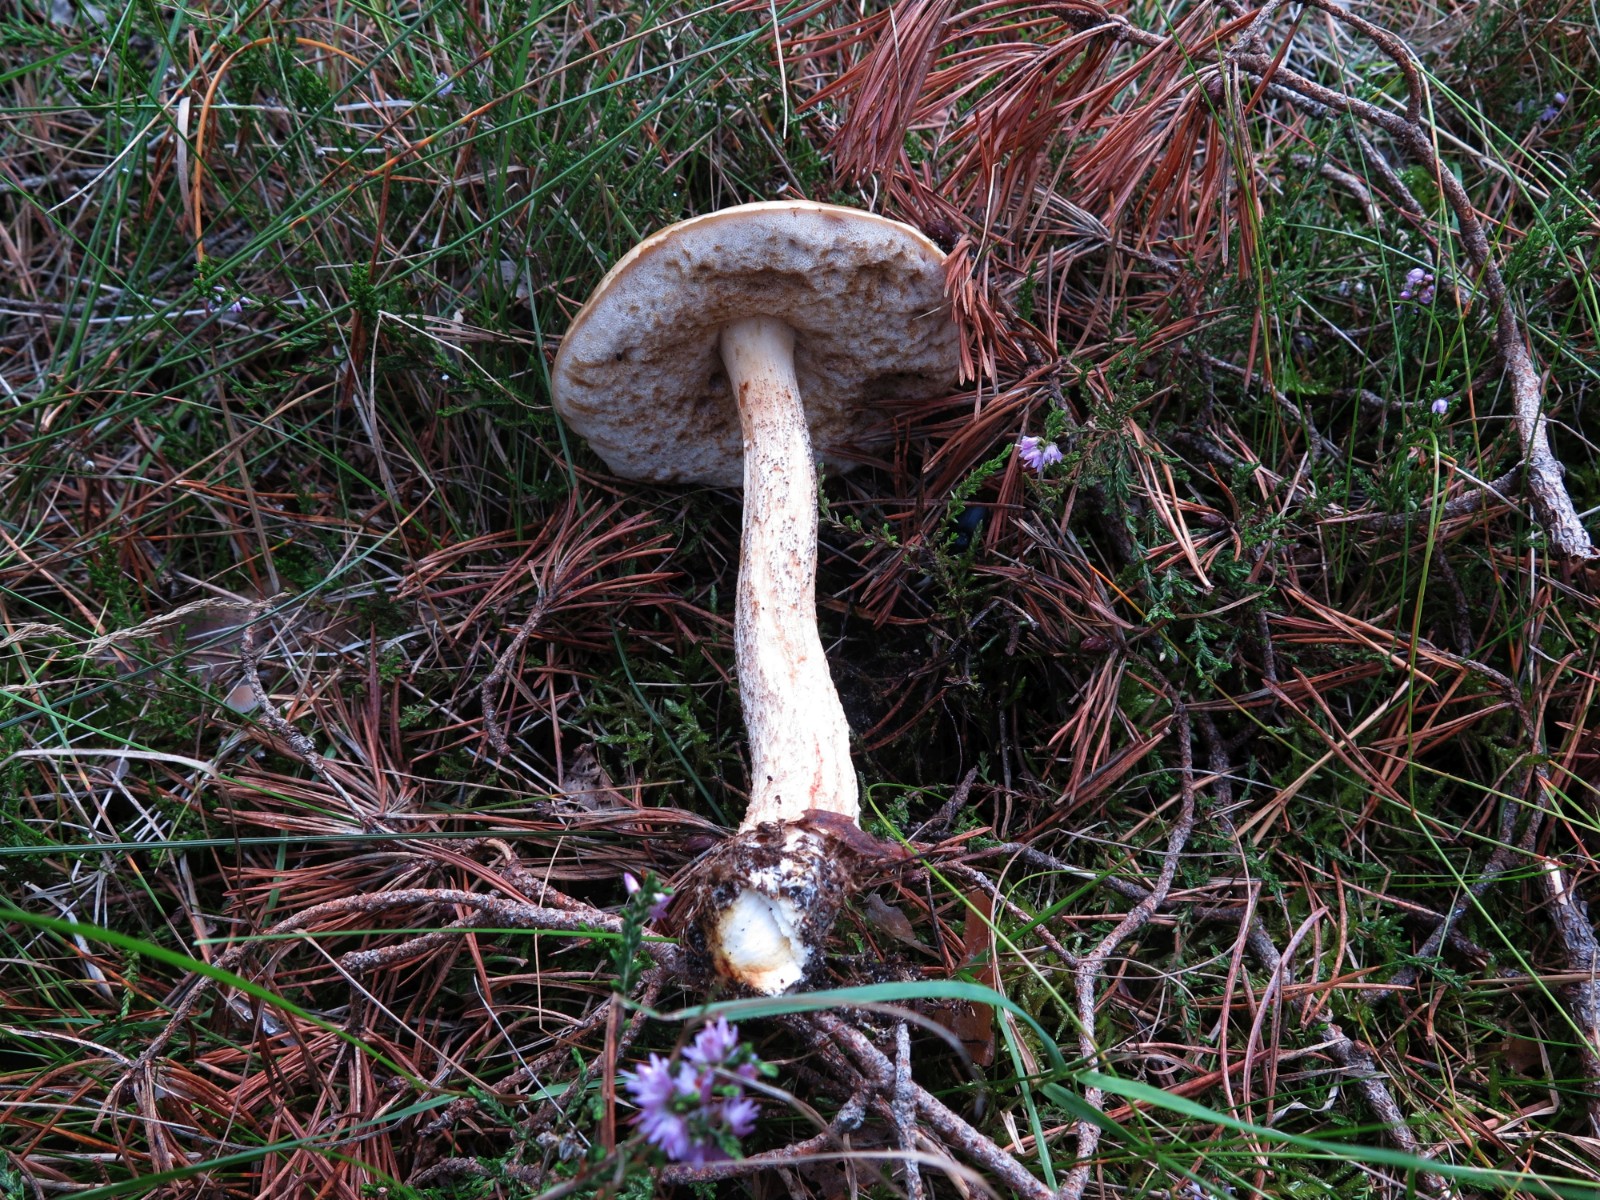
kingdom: Fungi
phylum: Basidiomycota
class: Agaricomycetes
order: Boletales
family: Boletaceae
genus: Leccinum
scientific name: Leccinum scabrum
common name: brun skælrørhat
